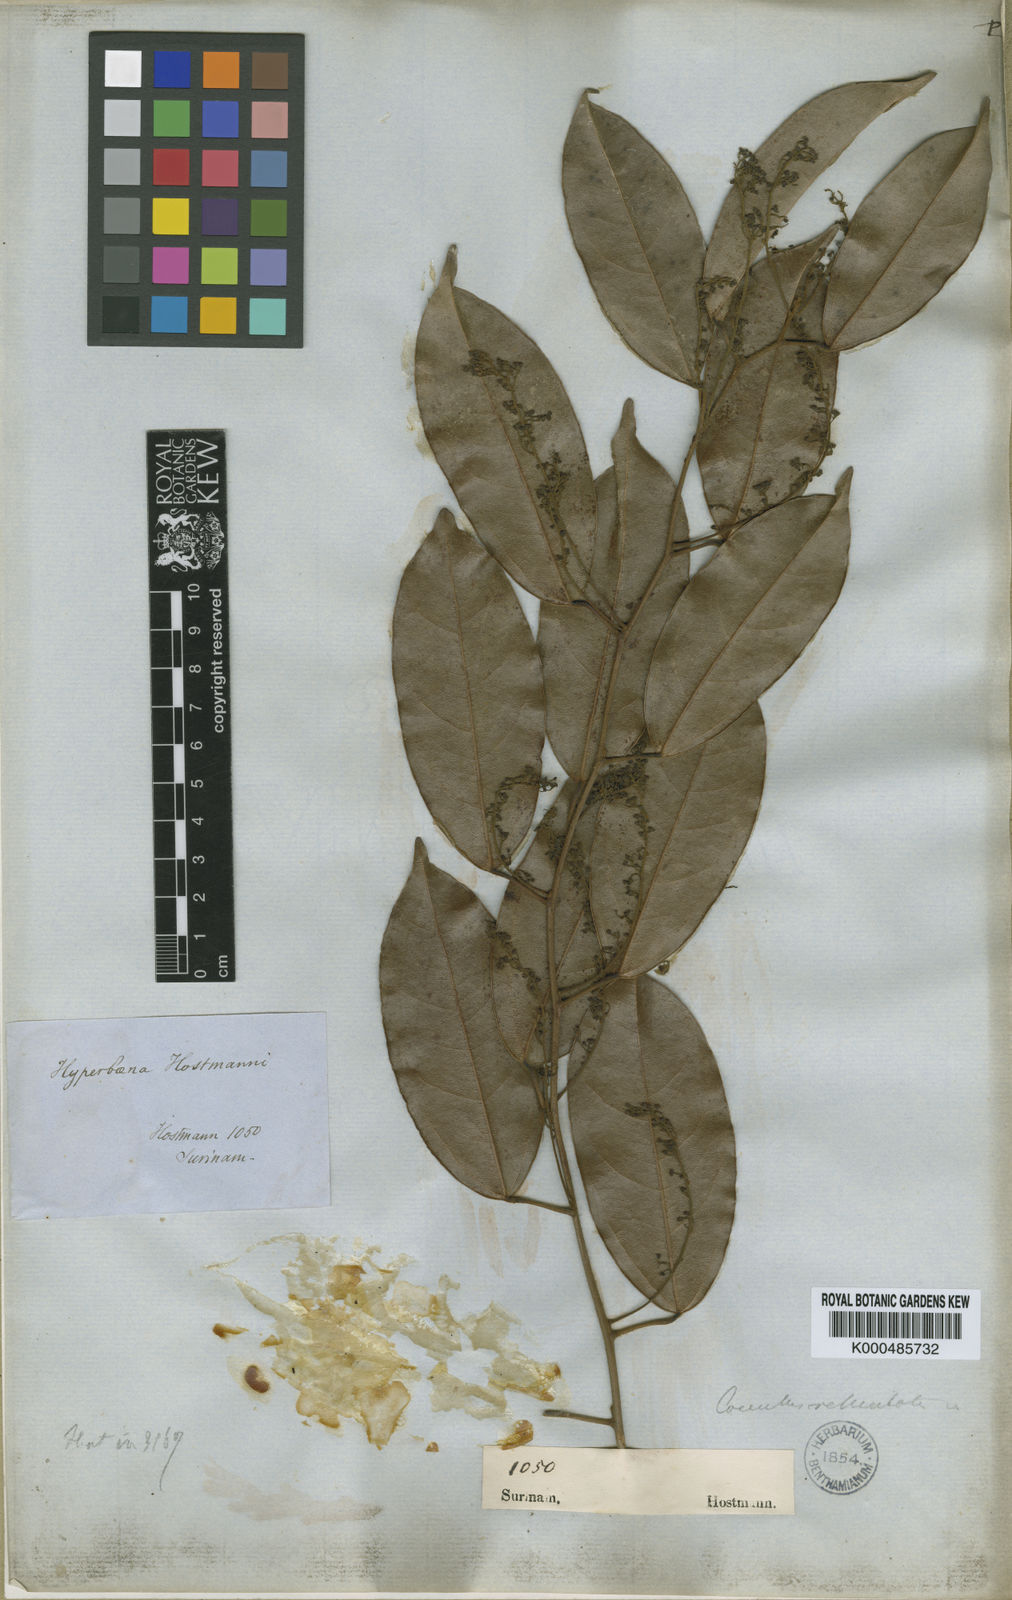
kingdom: Plantae
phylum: Tracheophyta
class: Magnoliopsida
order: Ranunculales
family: Menispermaceae
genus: Hyperbaena
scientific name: Hyperbaena domingensis
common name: Forest snakevine
